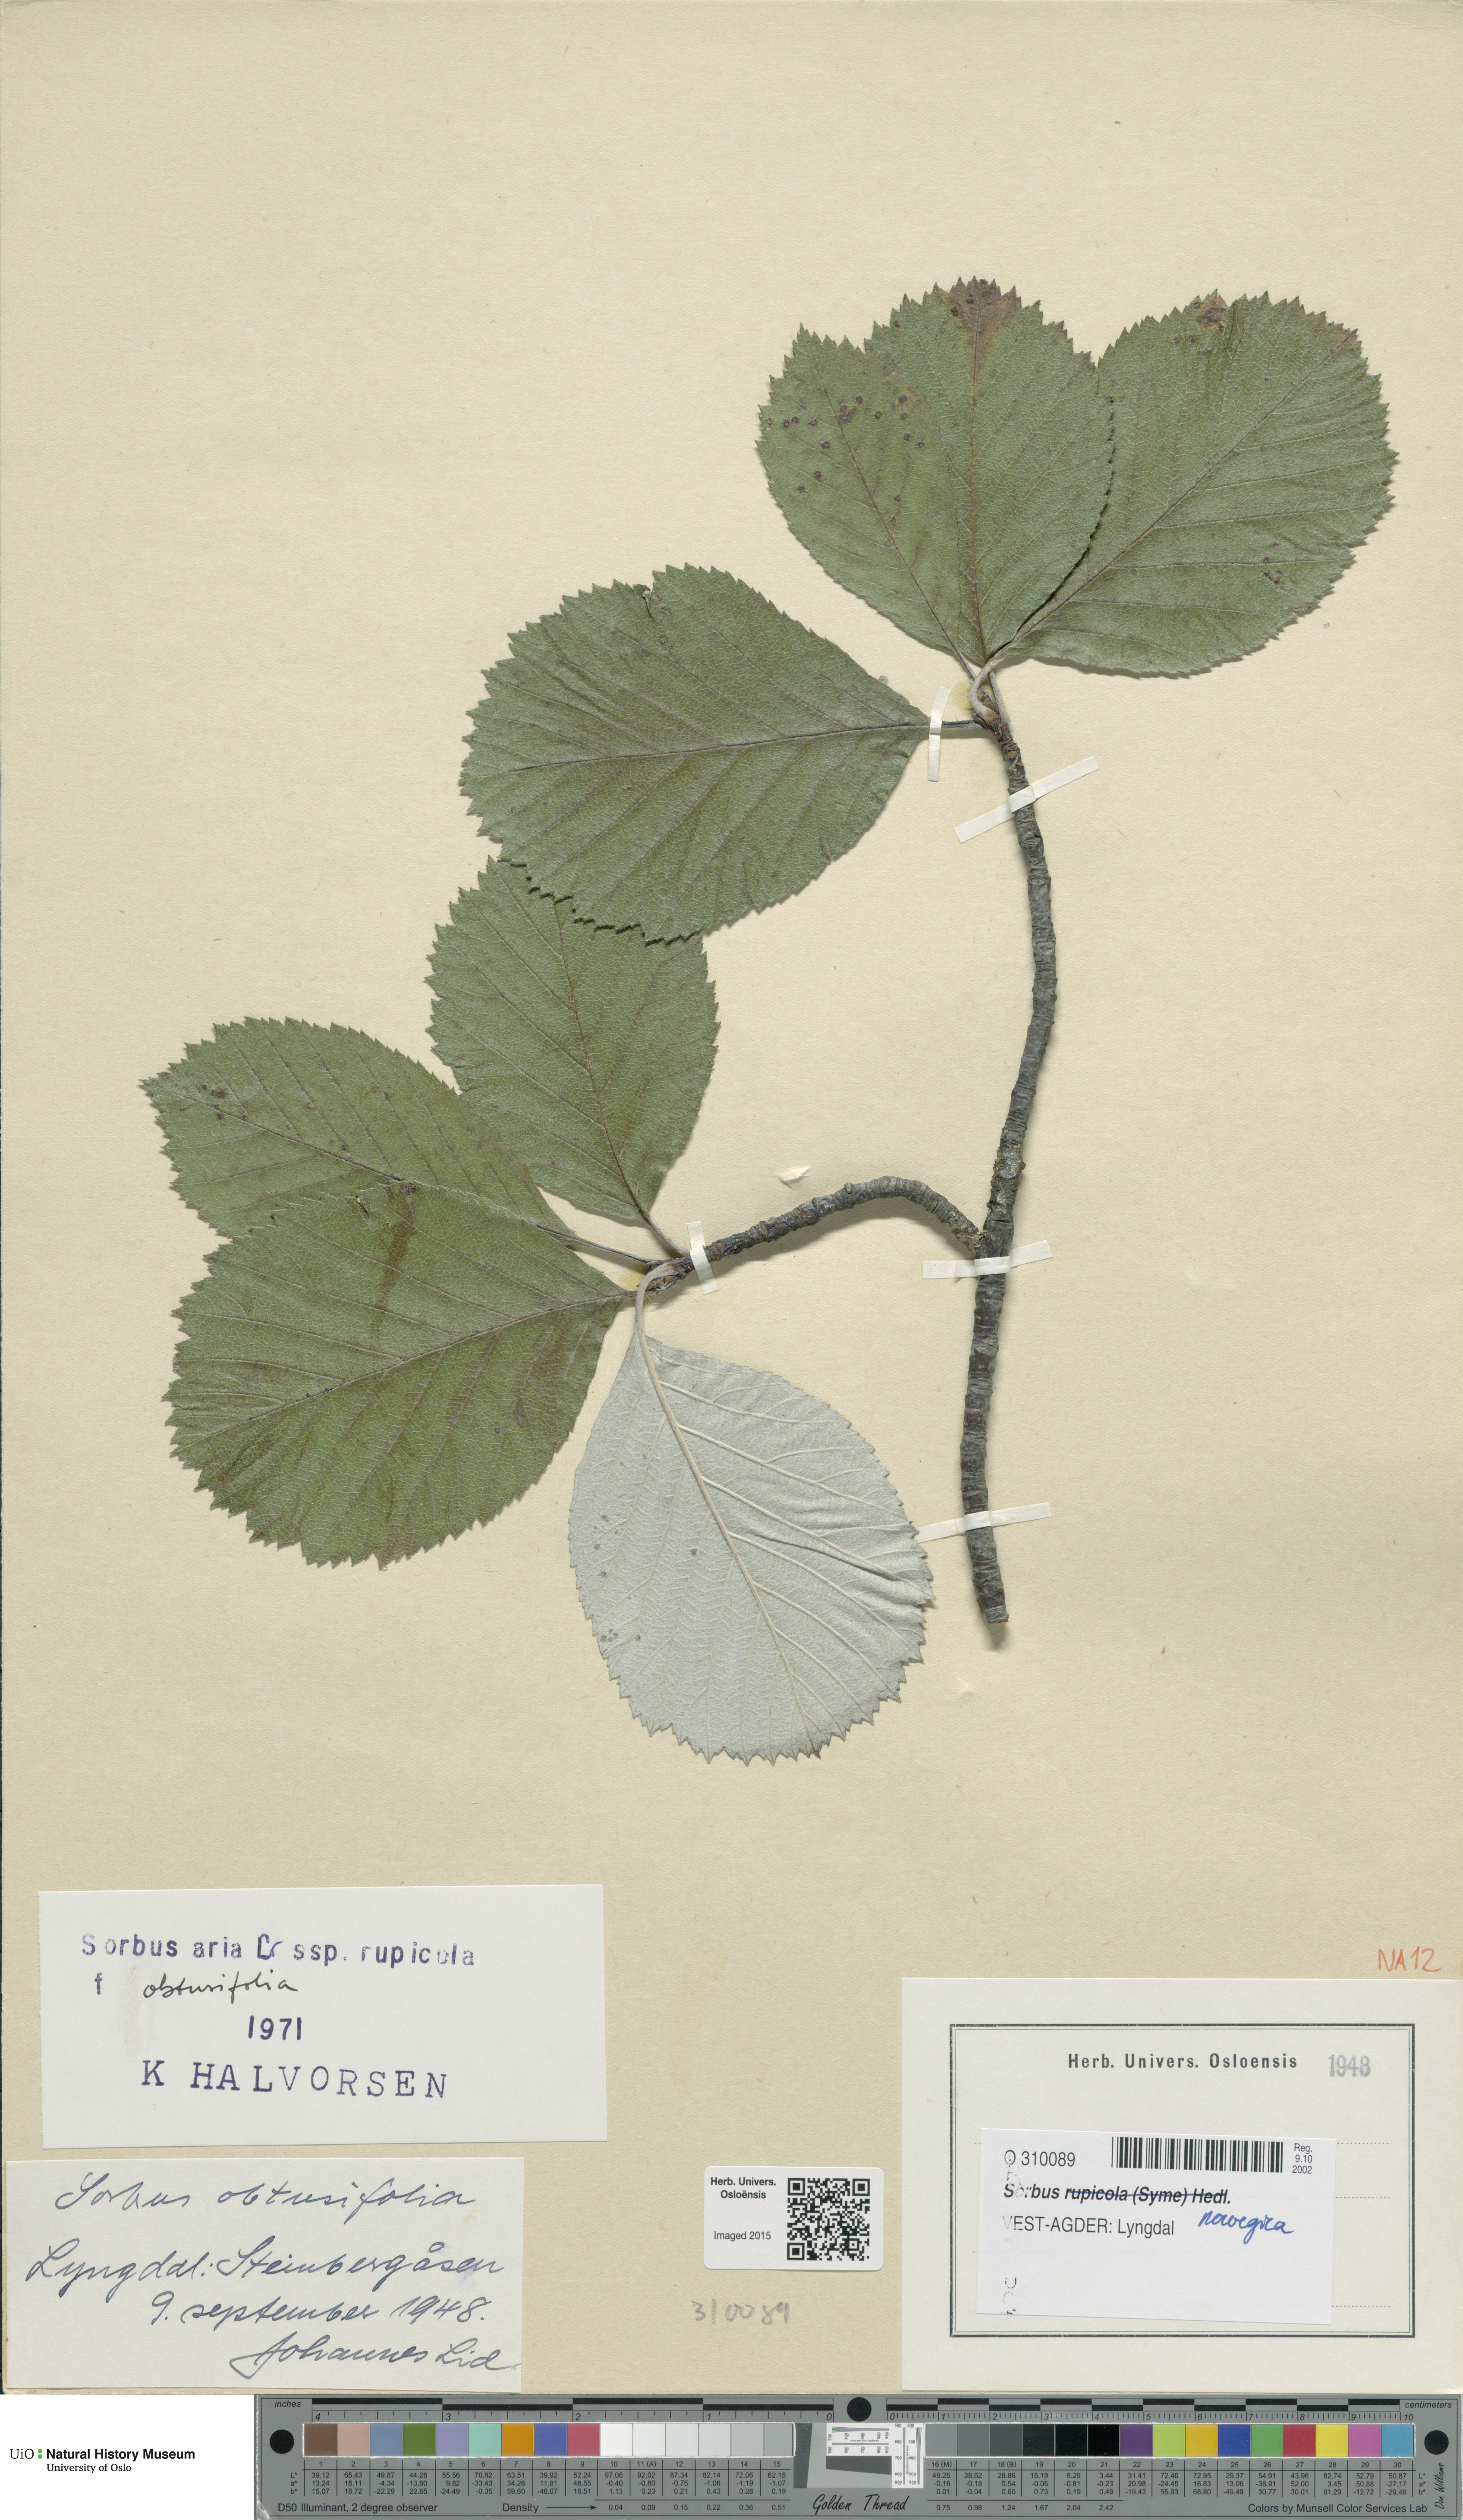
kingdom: Plantae
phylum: Tracheophyta
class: Magnoliopsida
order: Rosales
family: Rosaceae
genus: Aria
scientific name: Aria obtusifolia
